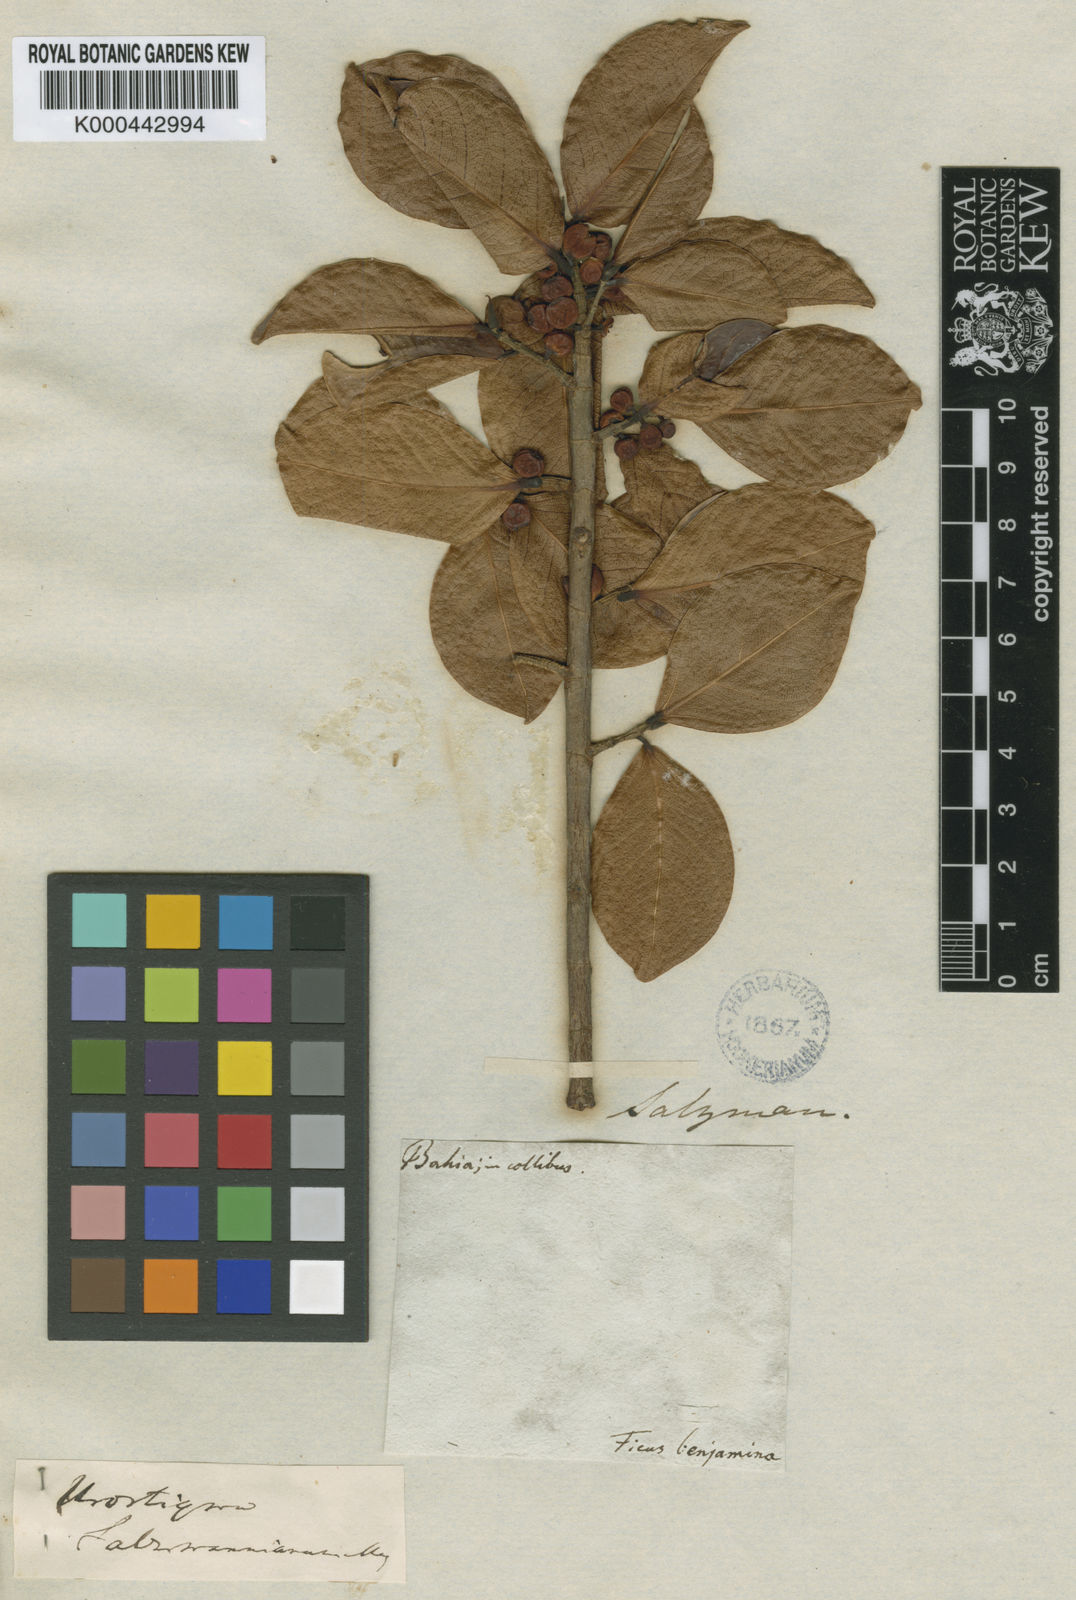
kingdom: Plantae
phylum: Tracheophyta
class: Magnoliopsida
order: Rosales
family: Moraceae
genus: Ficus
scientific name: Ficus salzmanniana
